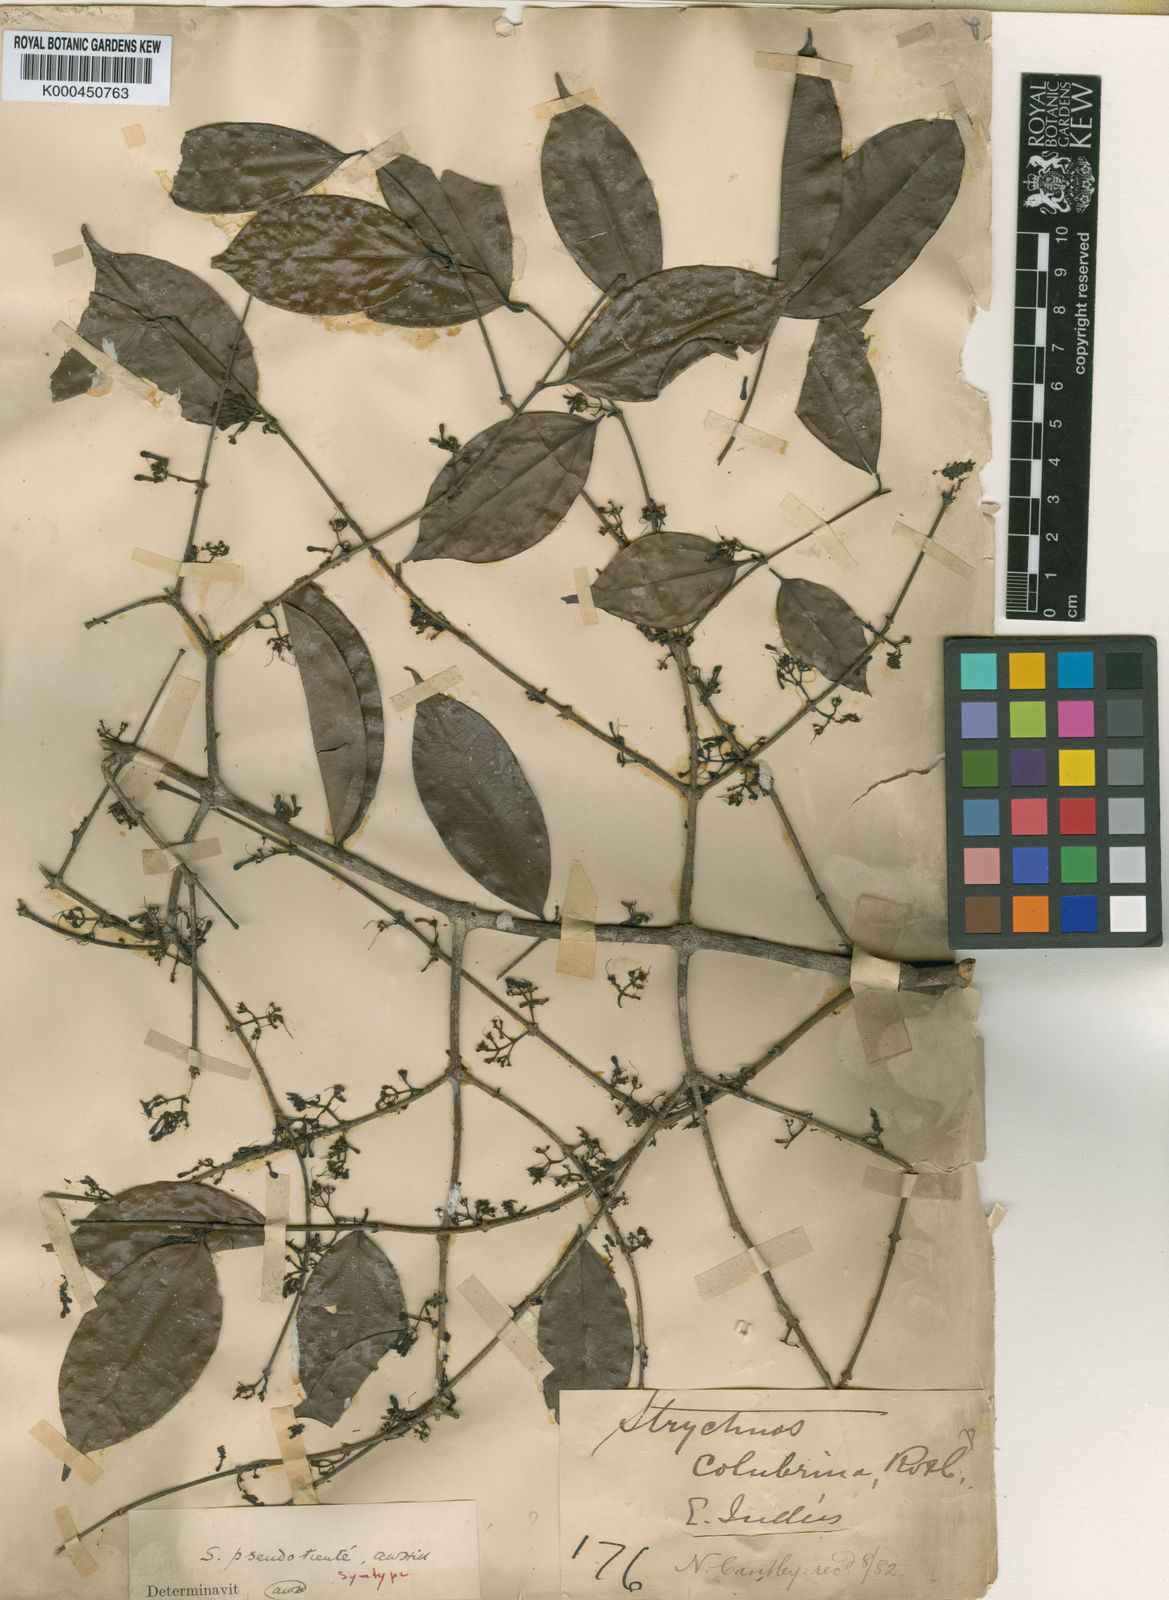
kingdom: Plantae
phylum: Tracheophyta
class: Magnoliopsida
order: Gentianales
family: Loganiaceae
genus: Strychnos
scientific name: Strychnos ignatii
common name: Ignatius-bean
